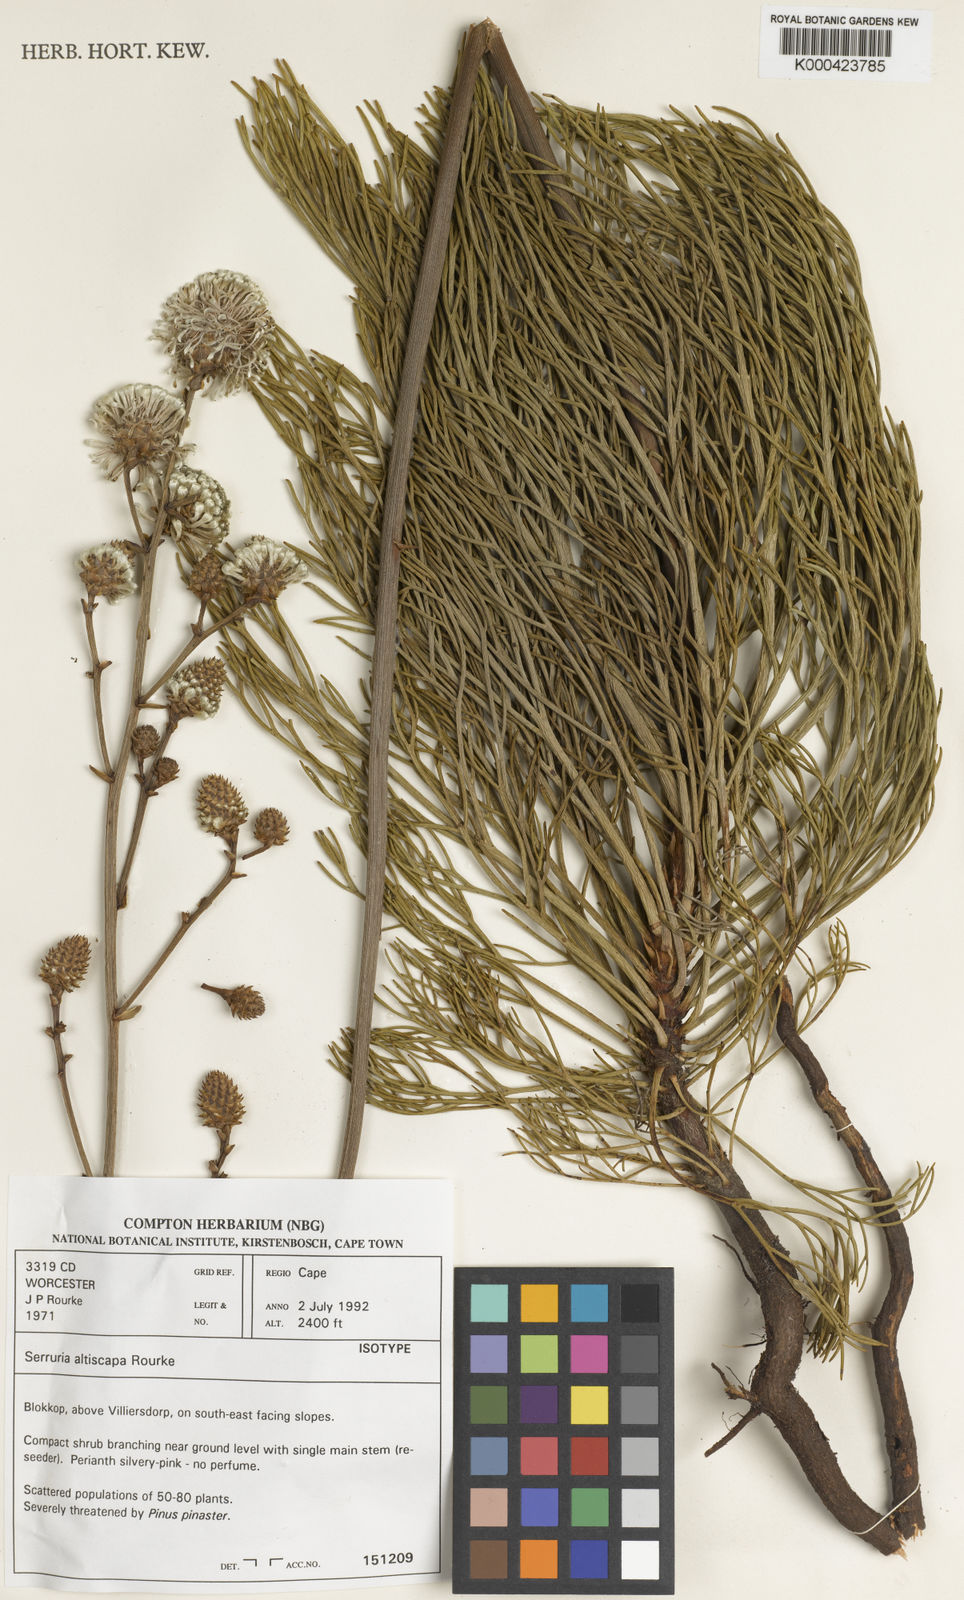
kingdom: Plantae
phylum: Tracheophyta
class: Magnoliopsida
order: Proteales
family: Proteaceae
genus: Serruria
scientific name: Serruria altiscapa
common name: Stately spiderhead
